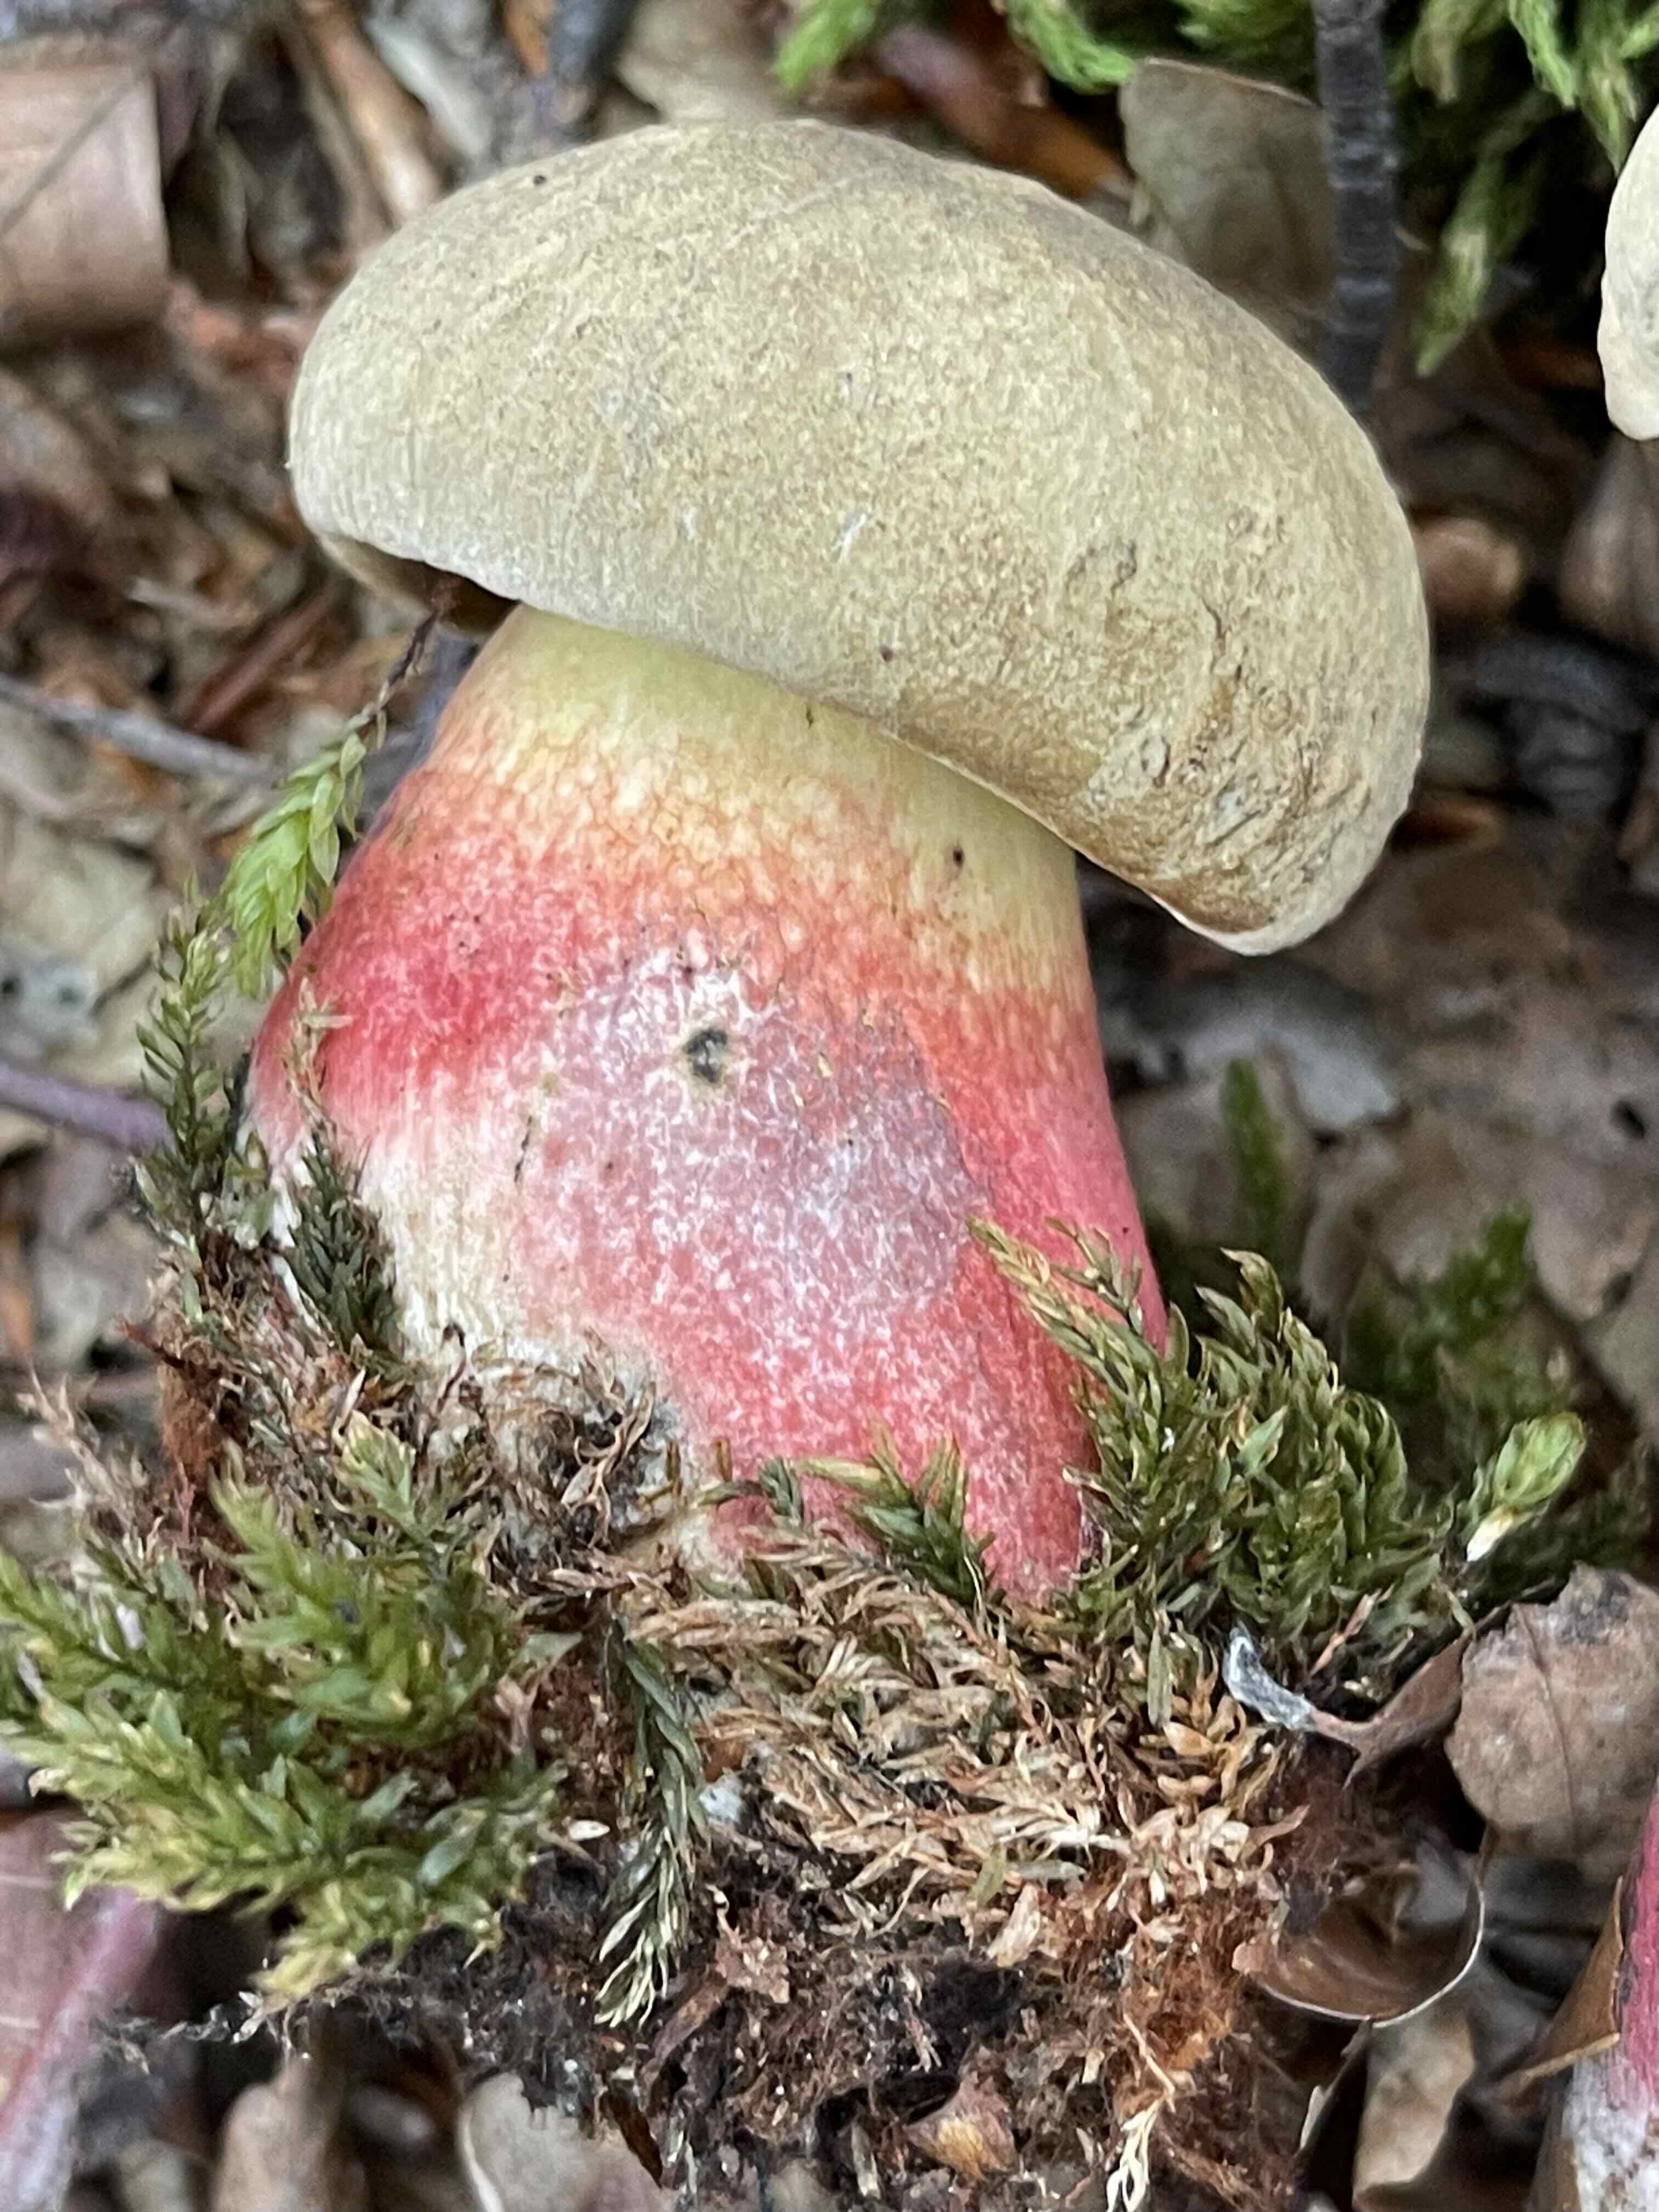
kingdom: Fungi
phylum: Basidiomycota
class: Agaricomycetes
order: Boletales
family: Boletaceae
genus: Caloboletus
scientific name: Caloboletus calopus
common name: skønfodet rørhat
